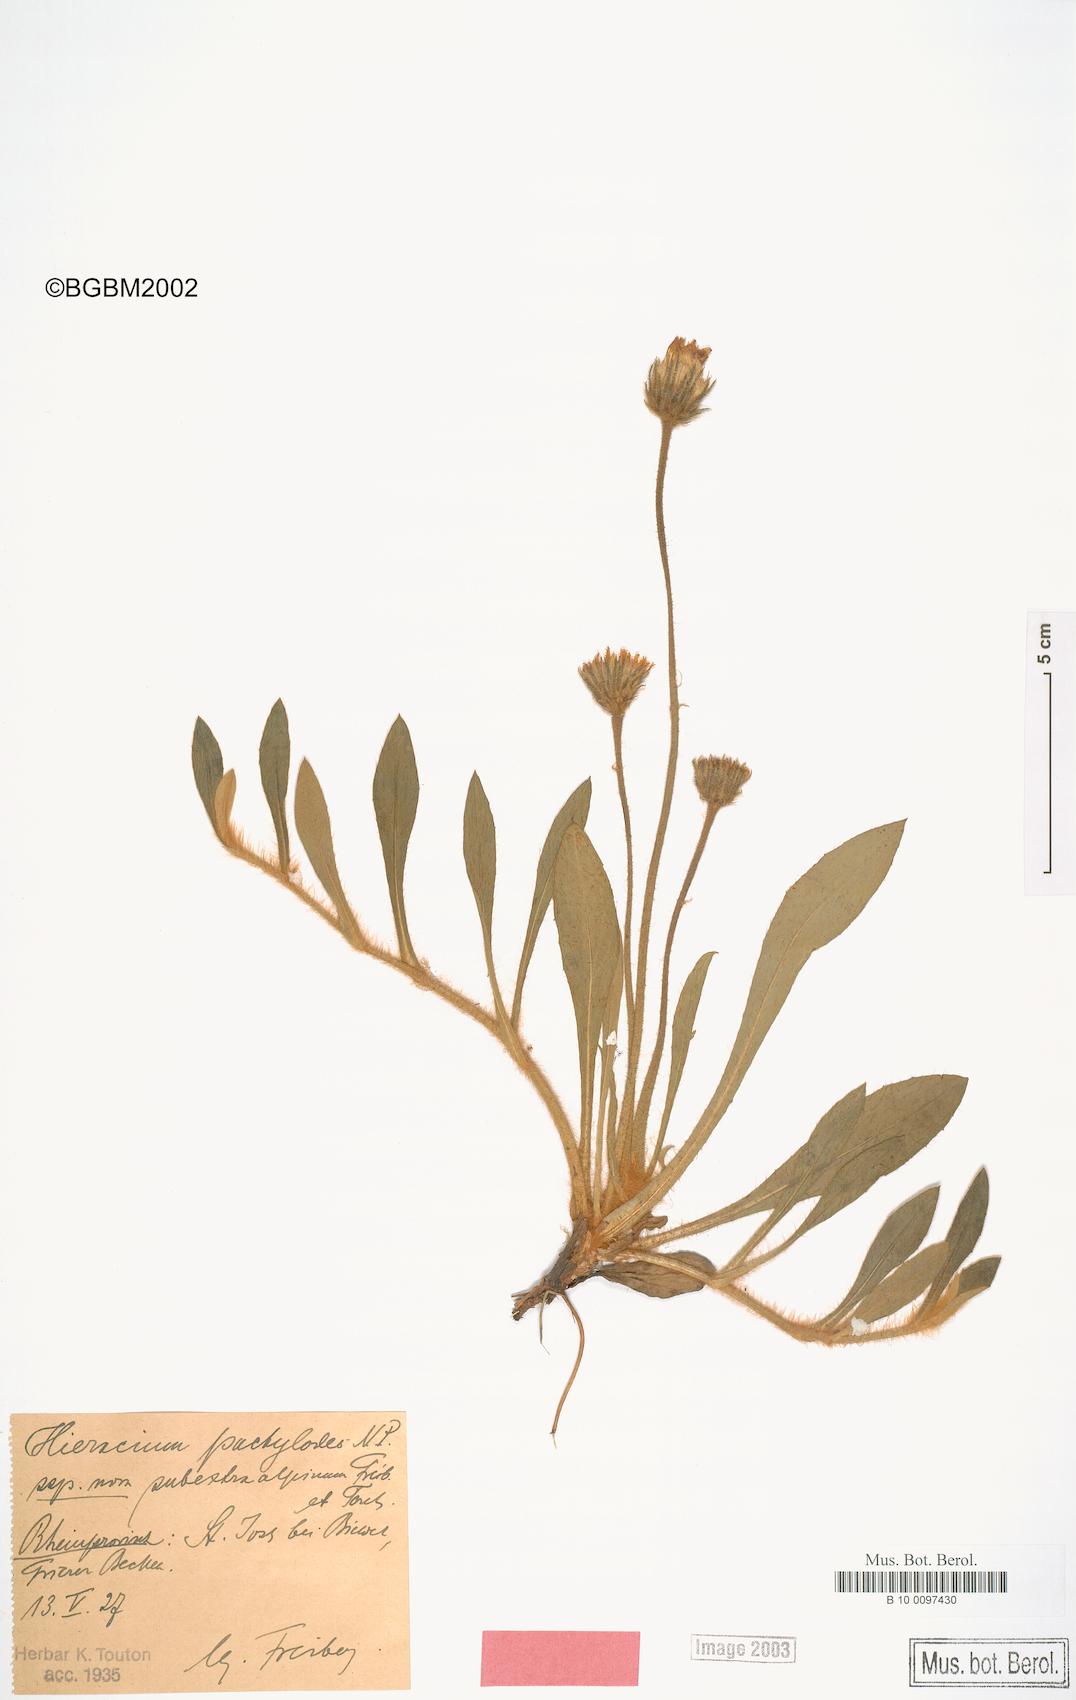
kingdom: Plantae
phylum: Tracheophyta
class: Magnoliopsida
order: Asterales
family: Asteraceae
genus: Pilosella
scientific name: Pilosella longisquama
